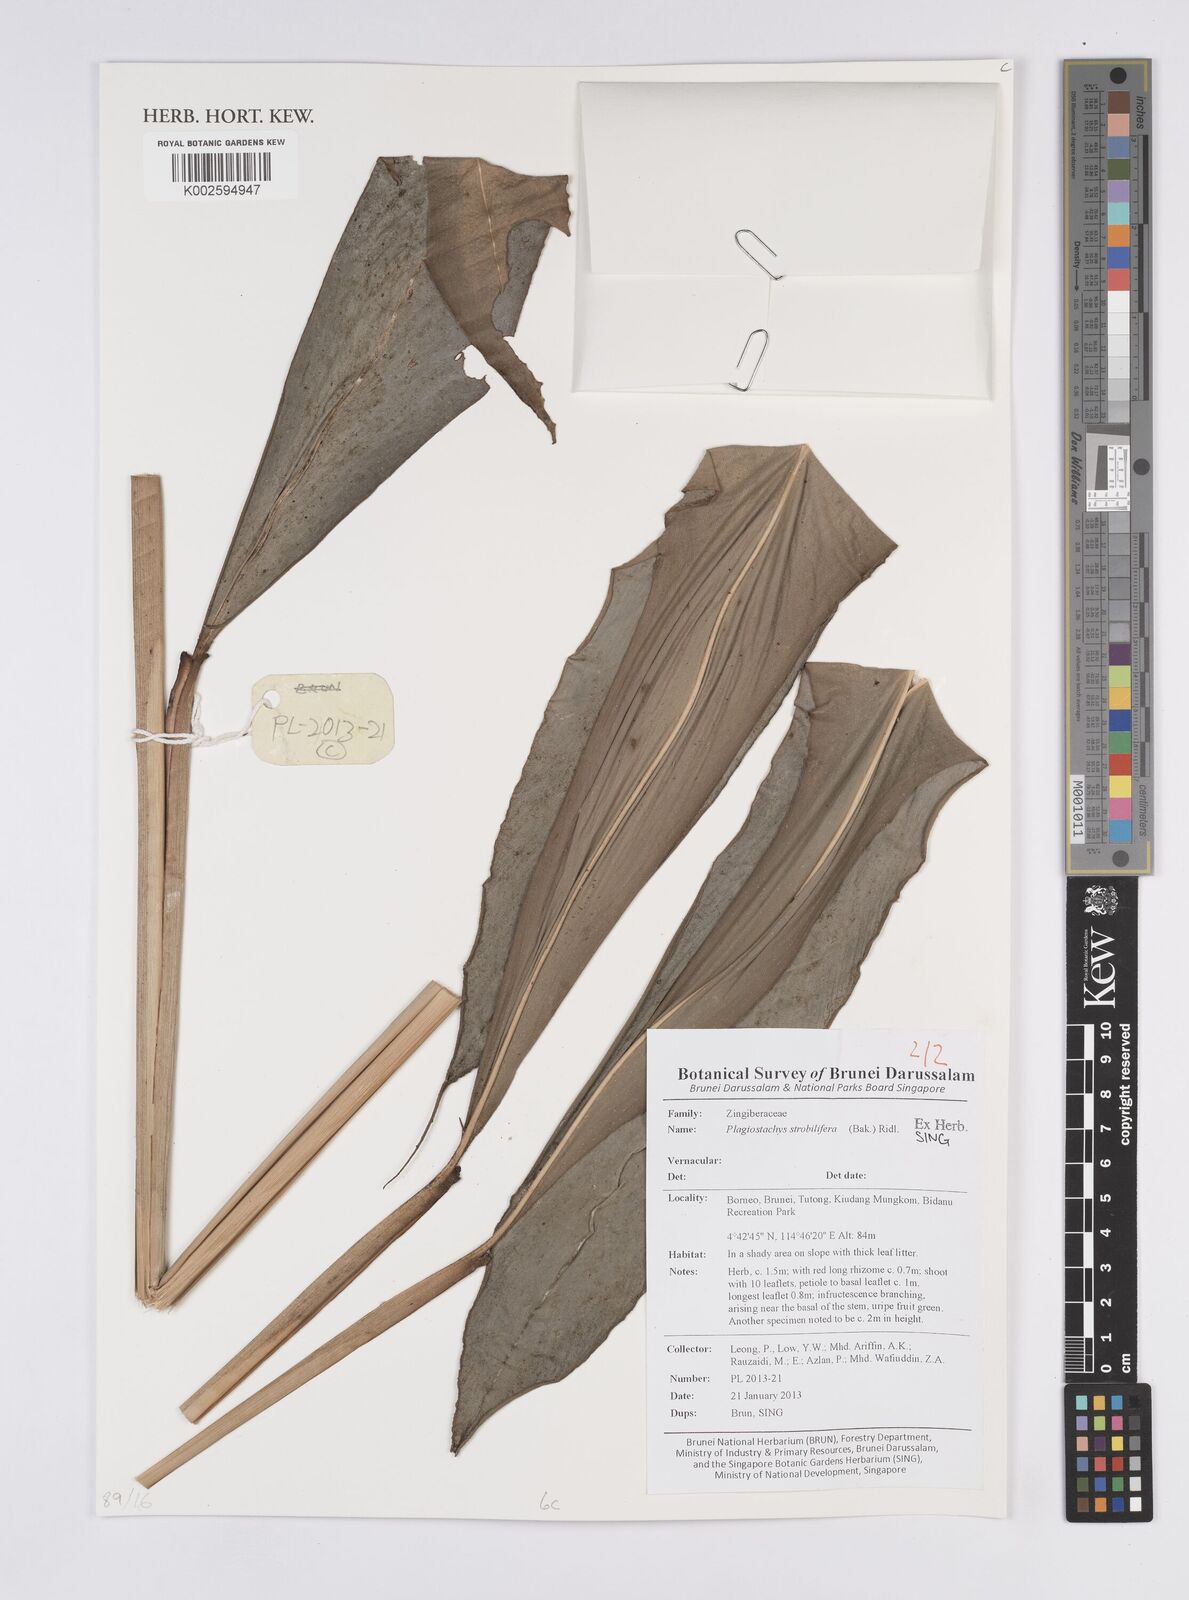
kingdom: Plantae
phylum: Tracheophyta
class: Liliopsida
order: Zingiberales
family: Zingiberaceae
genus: Plagiostachys
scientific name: Plagiostachys strobilifera
